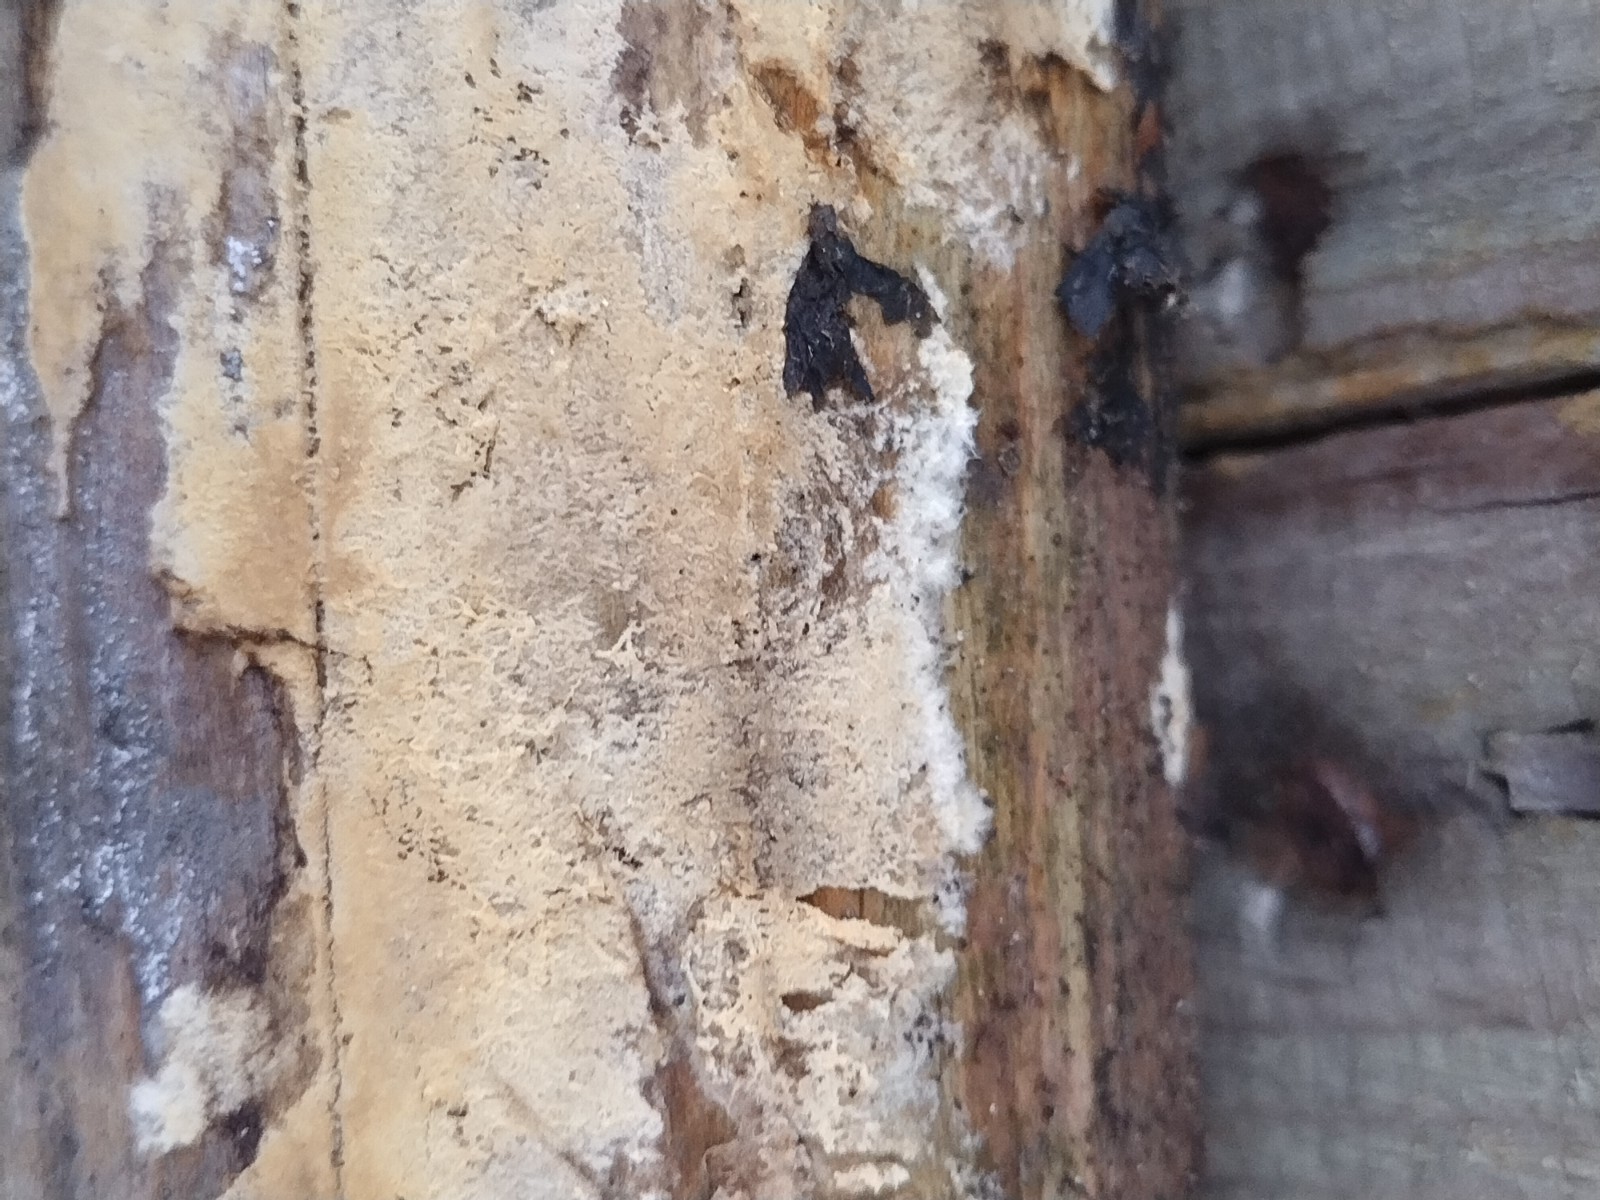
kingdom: Fungi
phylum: Basidiomycota
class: Agaricomycetes
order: Corticiales
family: Corticiaceae
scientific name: Corticiaceae
